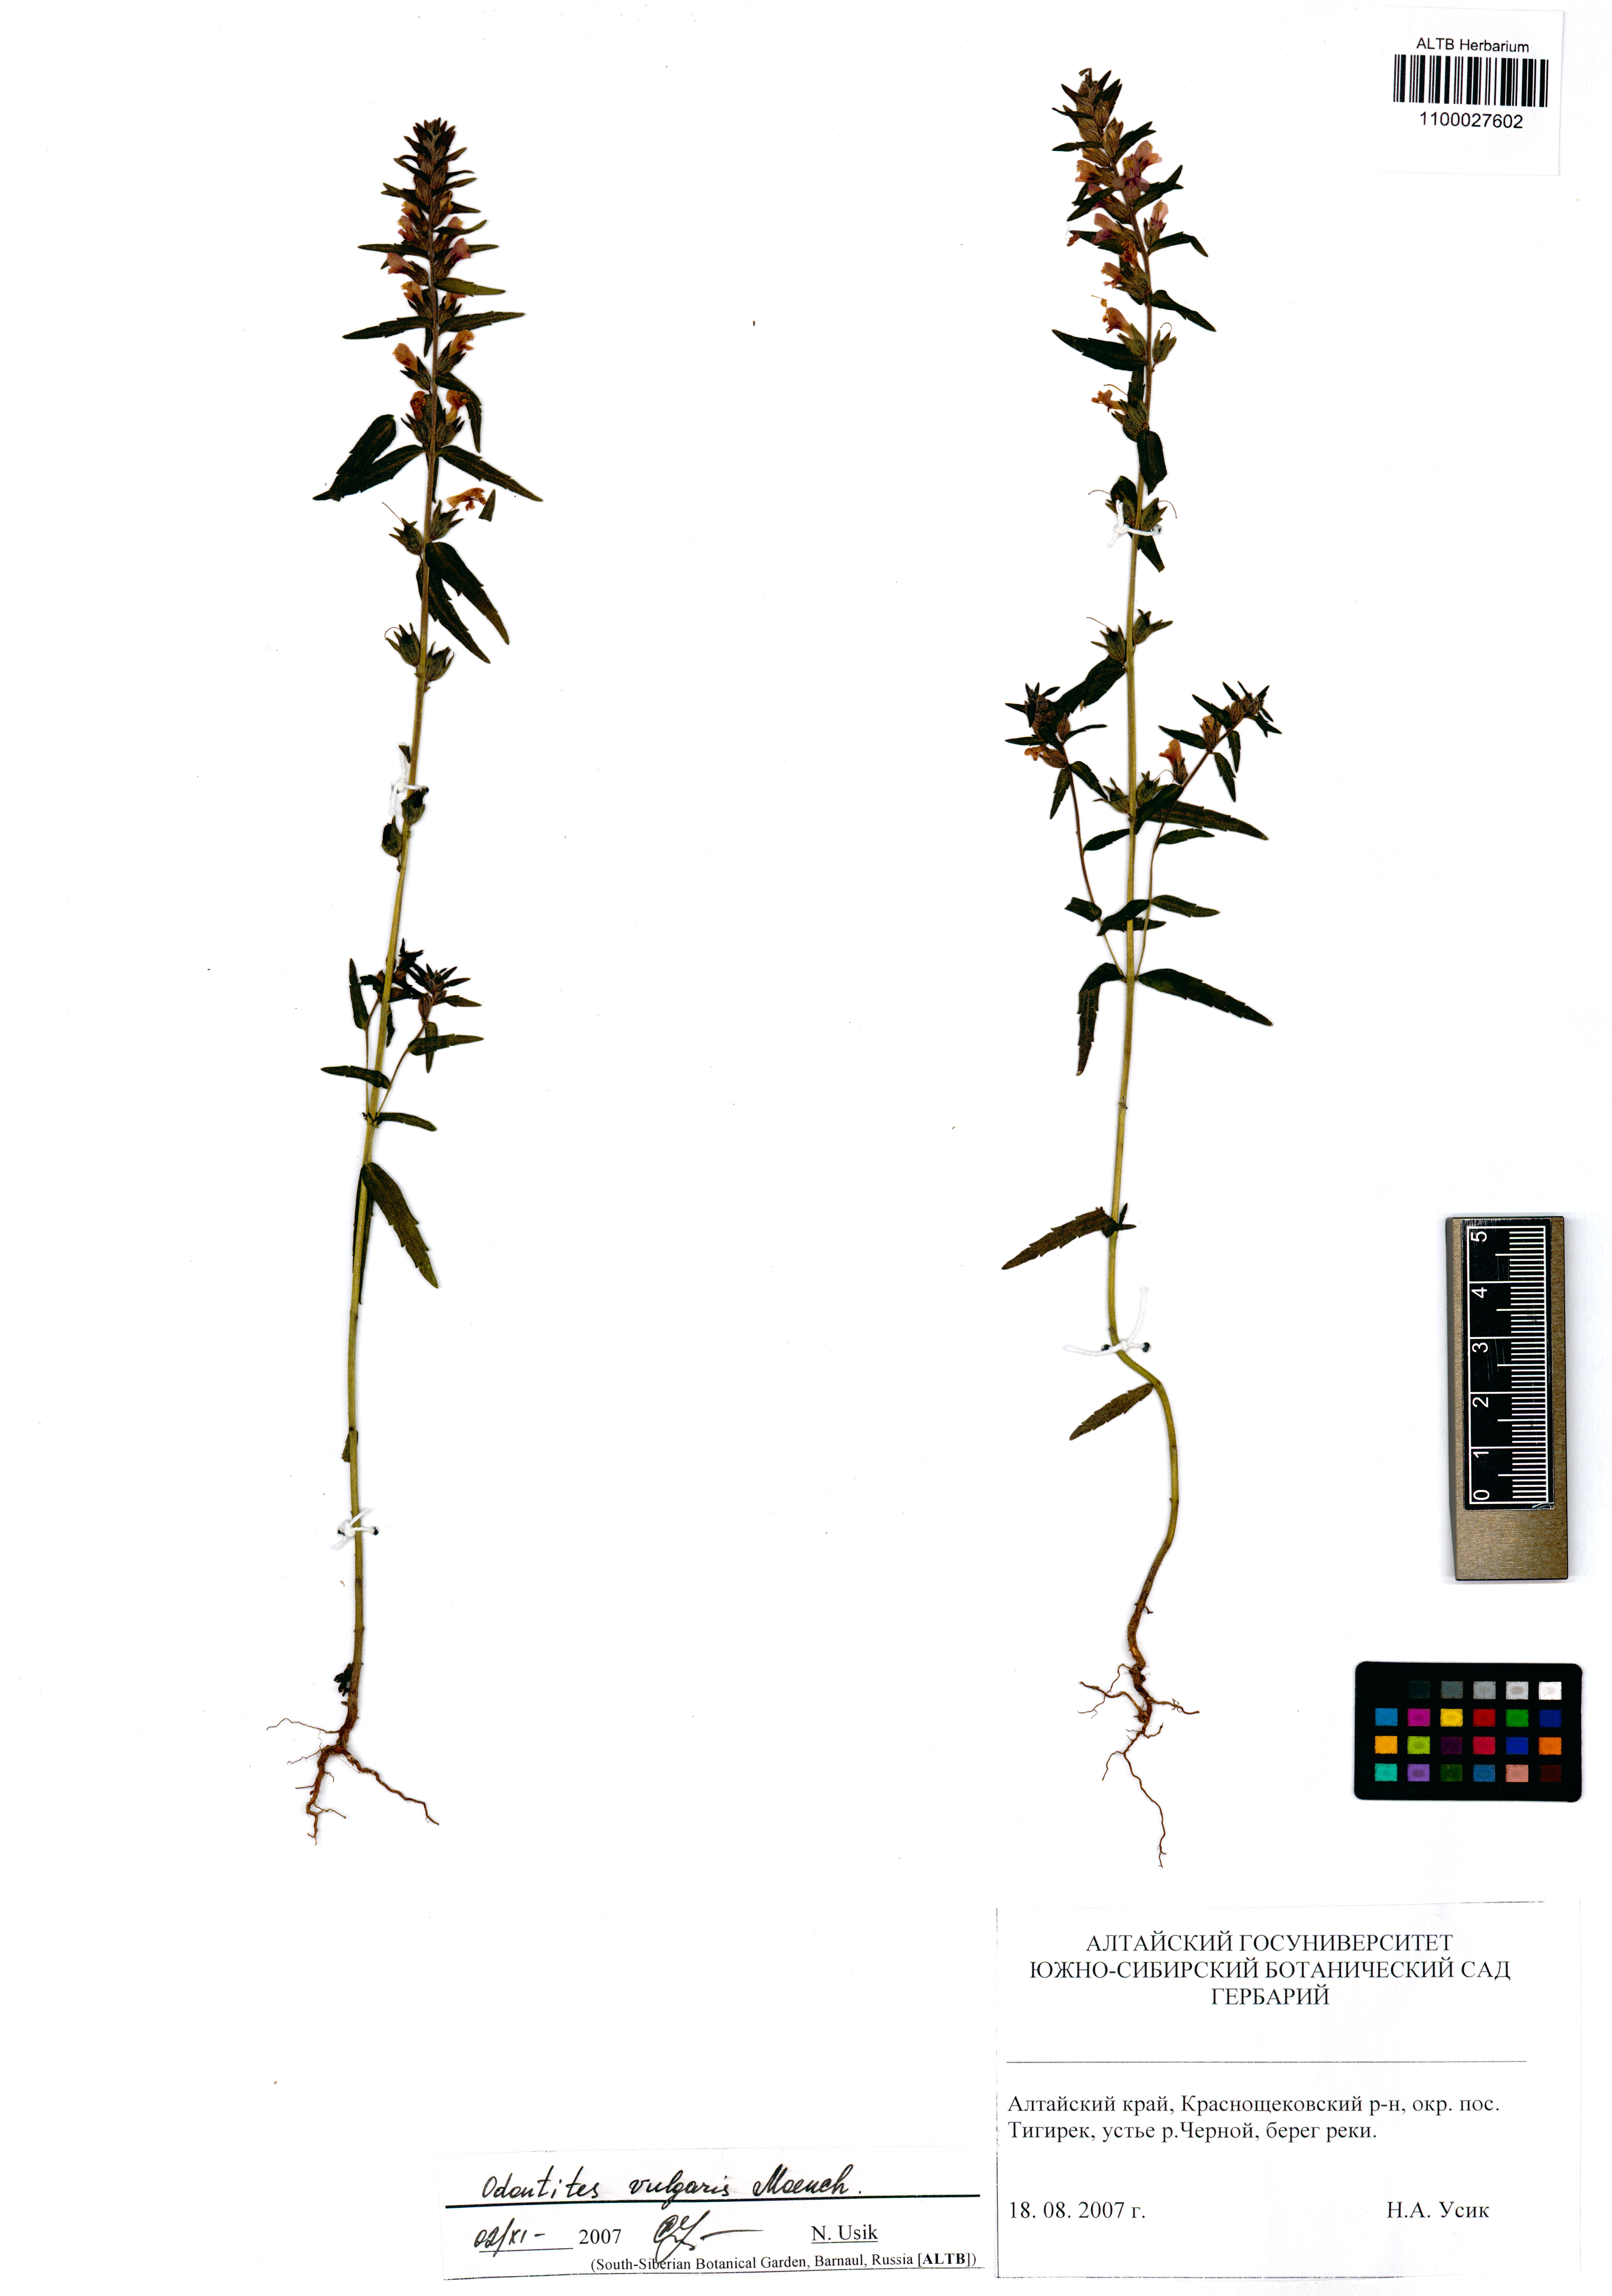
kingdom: Plantae
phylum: Tracheophyta
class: Magnoliopsida
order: Lamiales
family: Orobanchaceae
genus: Odontites
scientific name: Odontites vulgaris
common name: Broomrape
